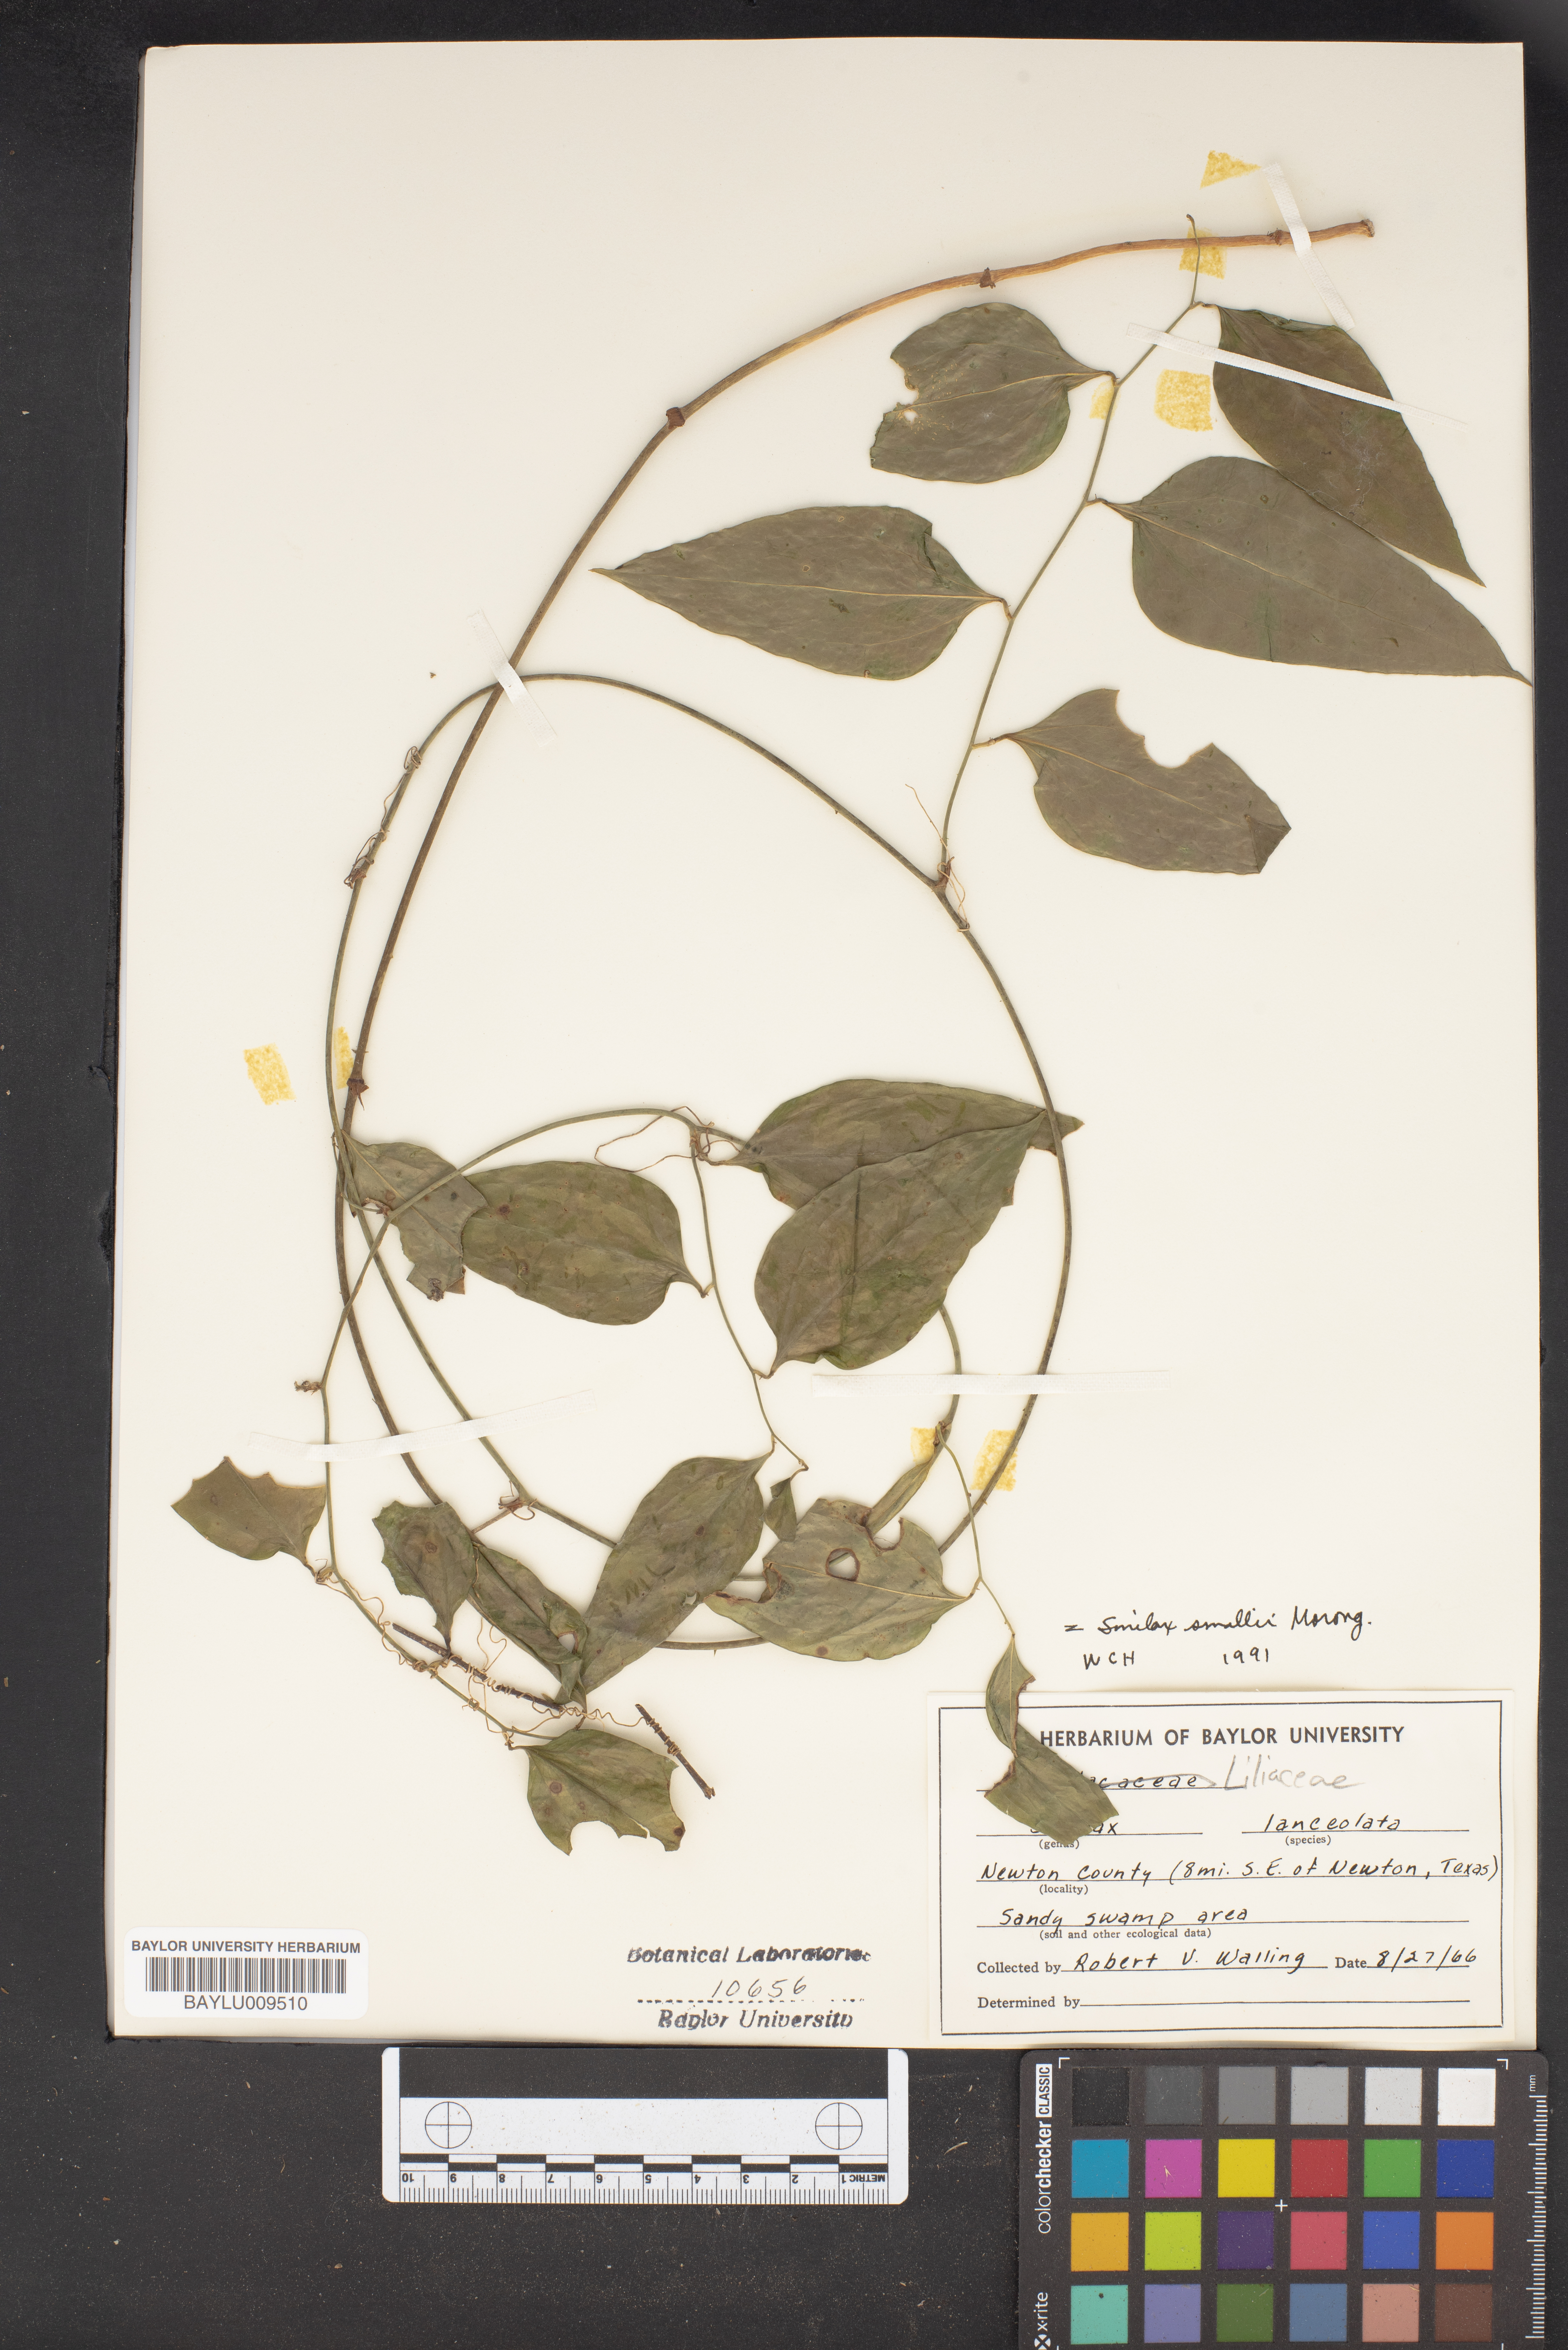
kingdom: Plantae
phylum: Tracheophyta
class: Liliopsida
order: Liliales
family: Smilacaceae
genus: Smilax
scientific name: Smilax laurifolia
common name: Bamboovine
